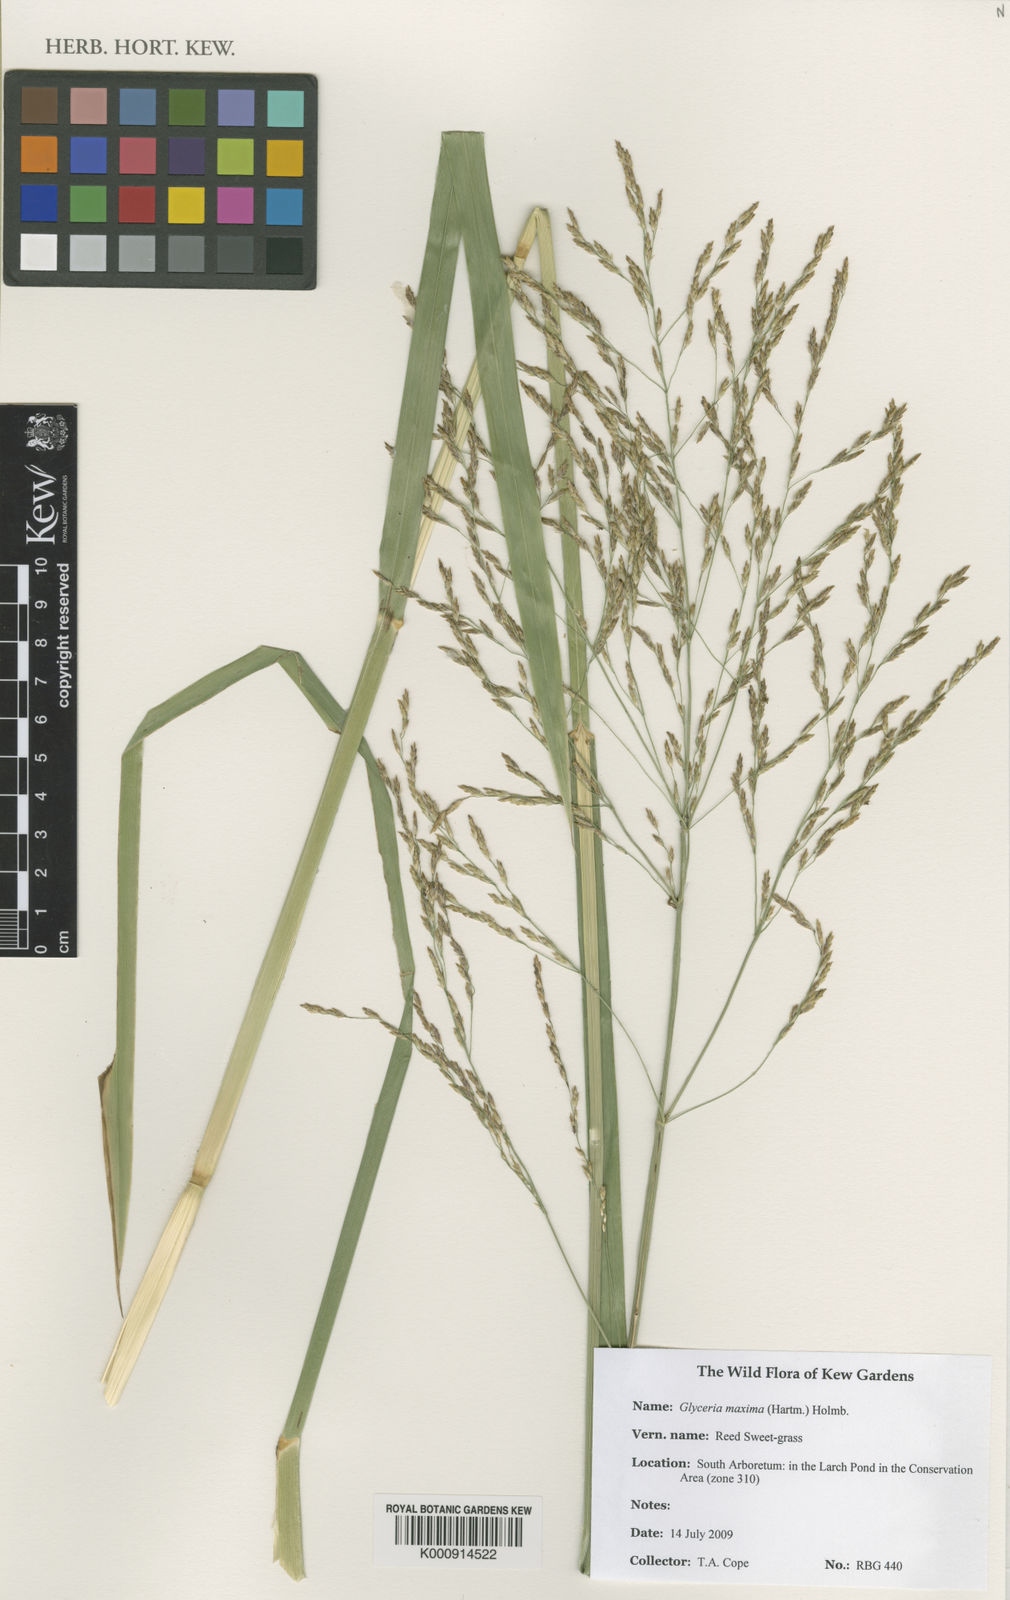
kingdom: Plantae
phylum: Tracheophyta
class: Liliopsida
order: Poales
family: Poaceae
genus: Glyceria
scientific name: Glyceria maxima
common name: Reed mannagrass
